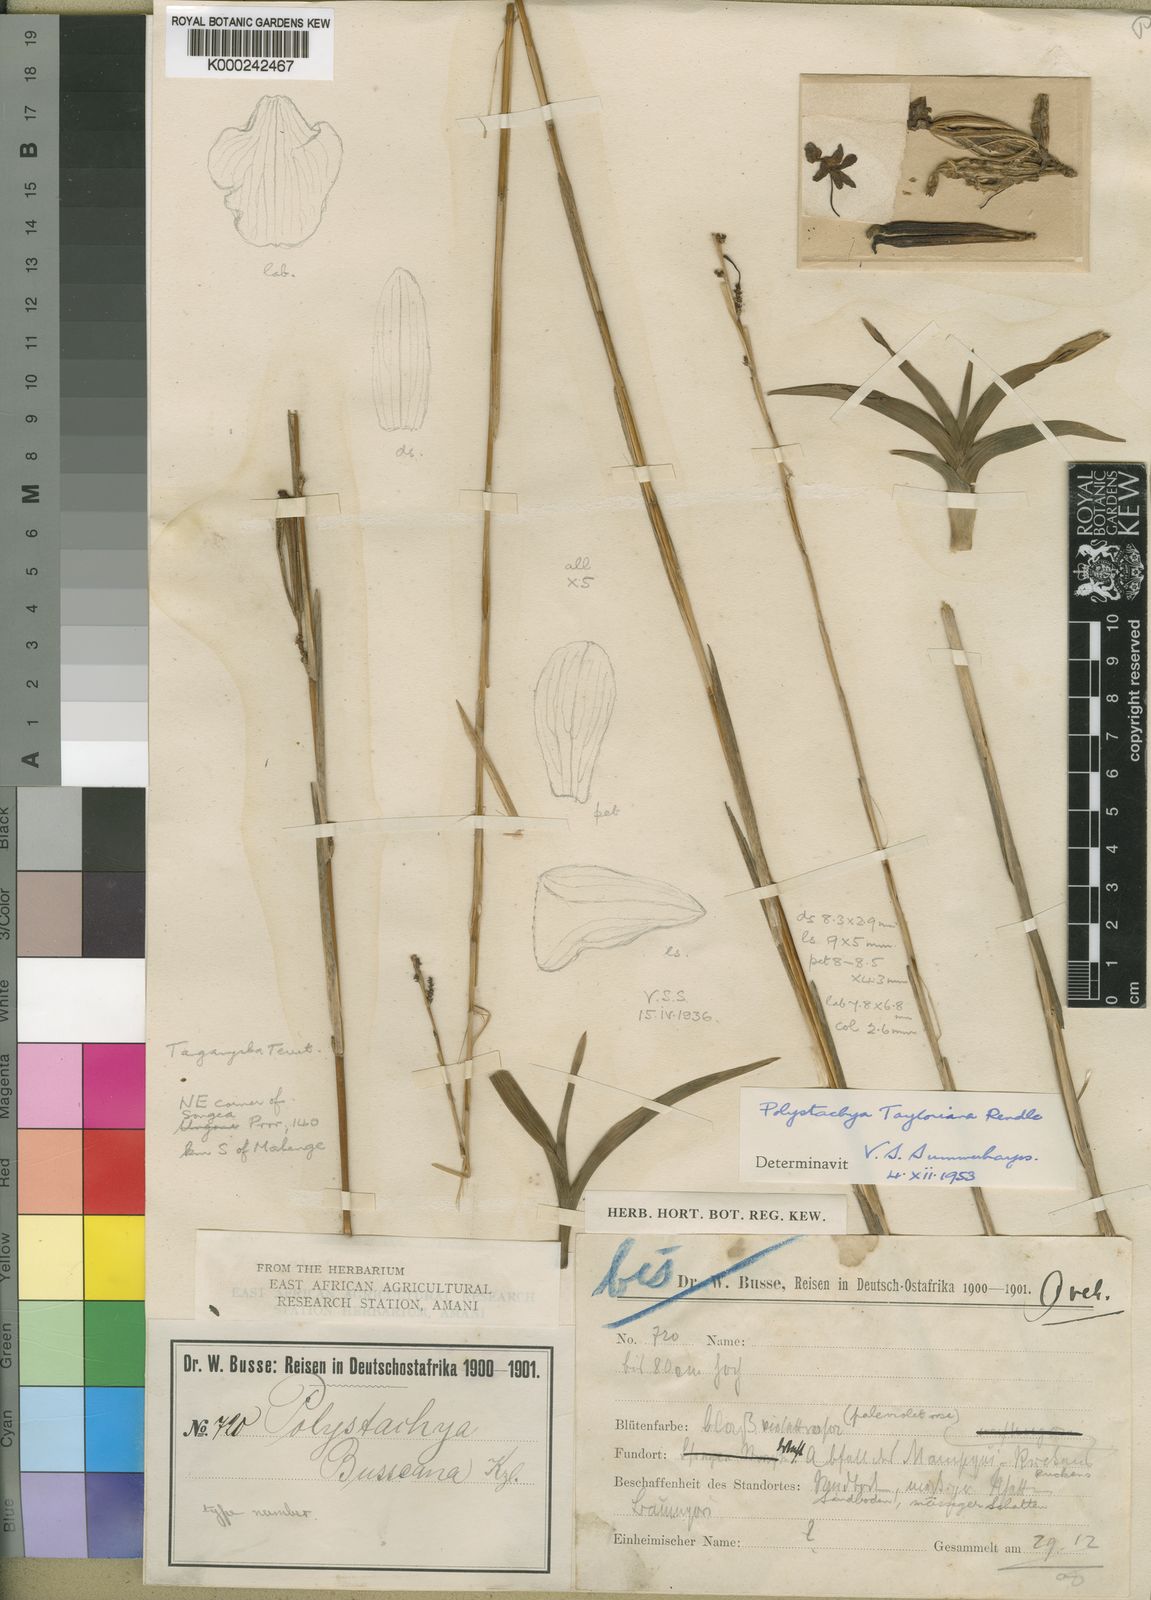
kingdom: Plantae
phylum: Tracheophyta
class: Liliopsida
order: Asparagales
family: Orchidaceae
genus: Polystachya
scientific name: Polystachya dendrobiiflora
